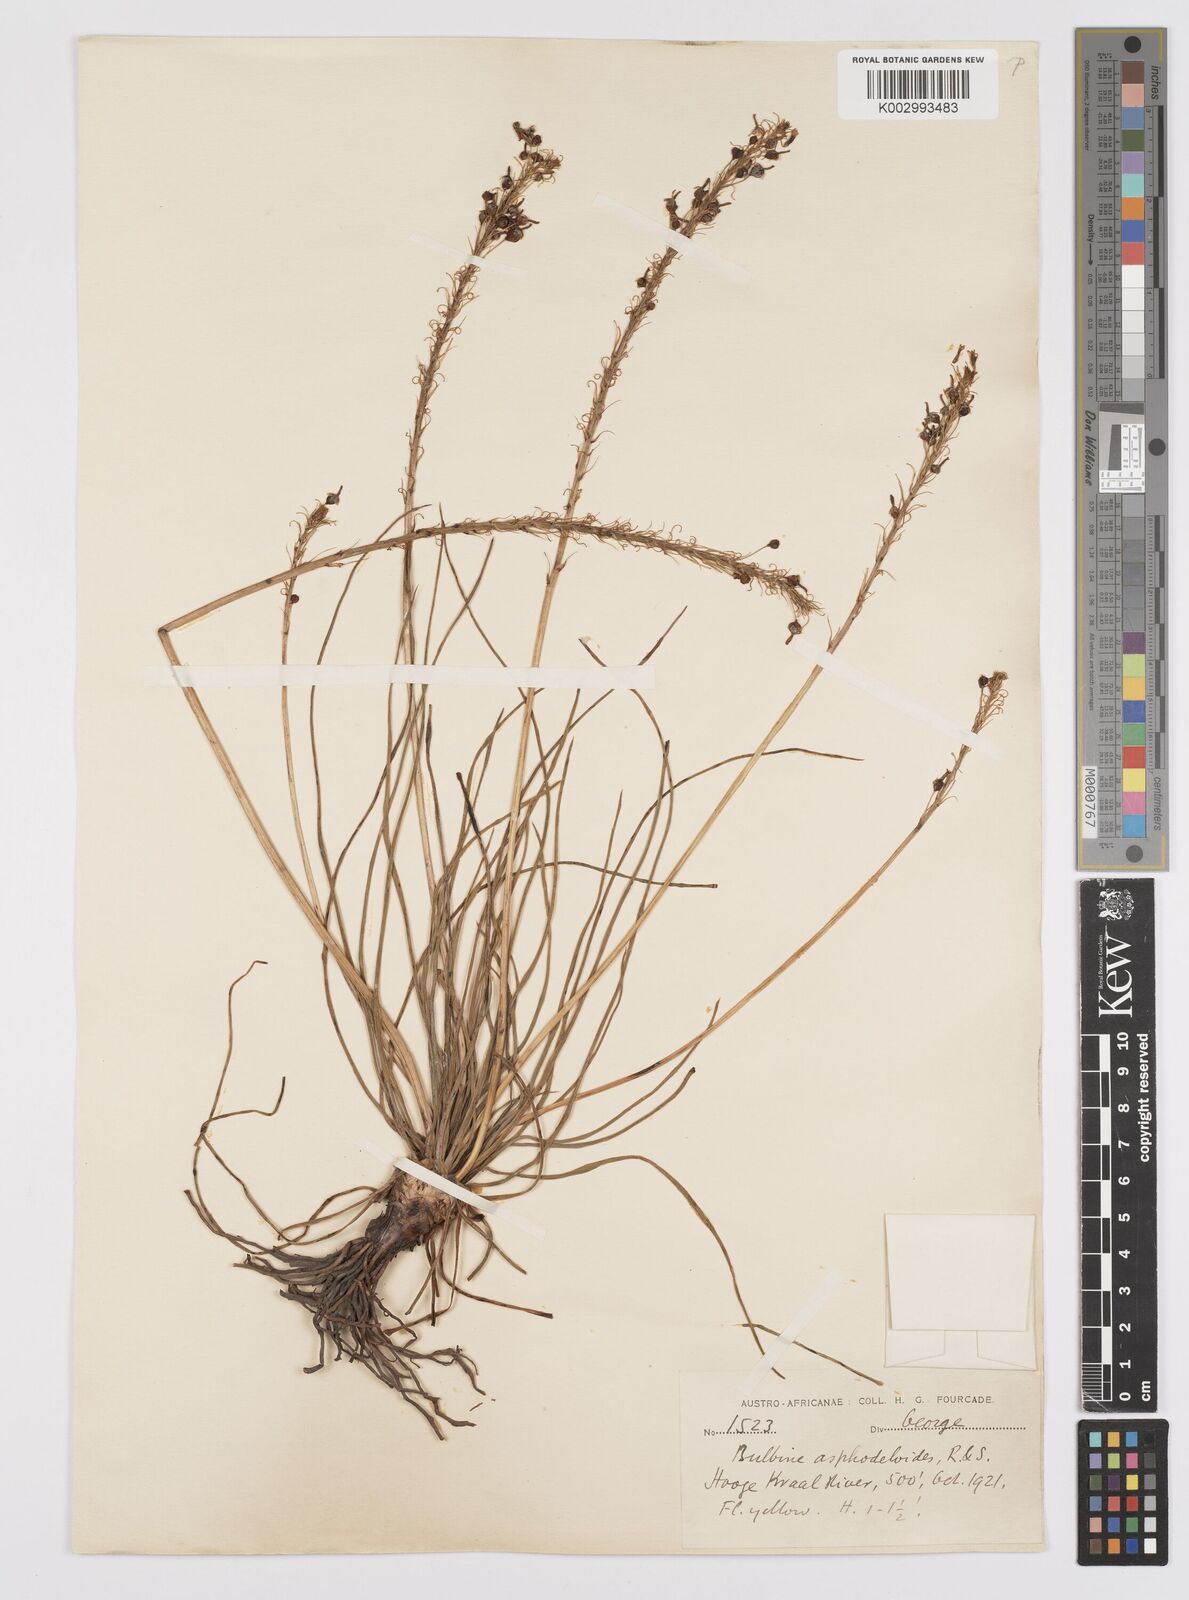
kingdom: Plantae
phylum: Tracheophyta
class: Liliopsida
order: Asparagales
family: Asphodelaceae
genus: Bulbine
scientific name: Bulbine lagopus
